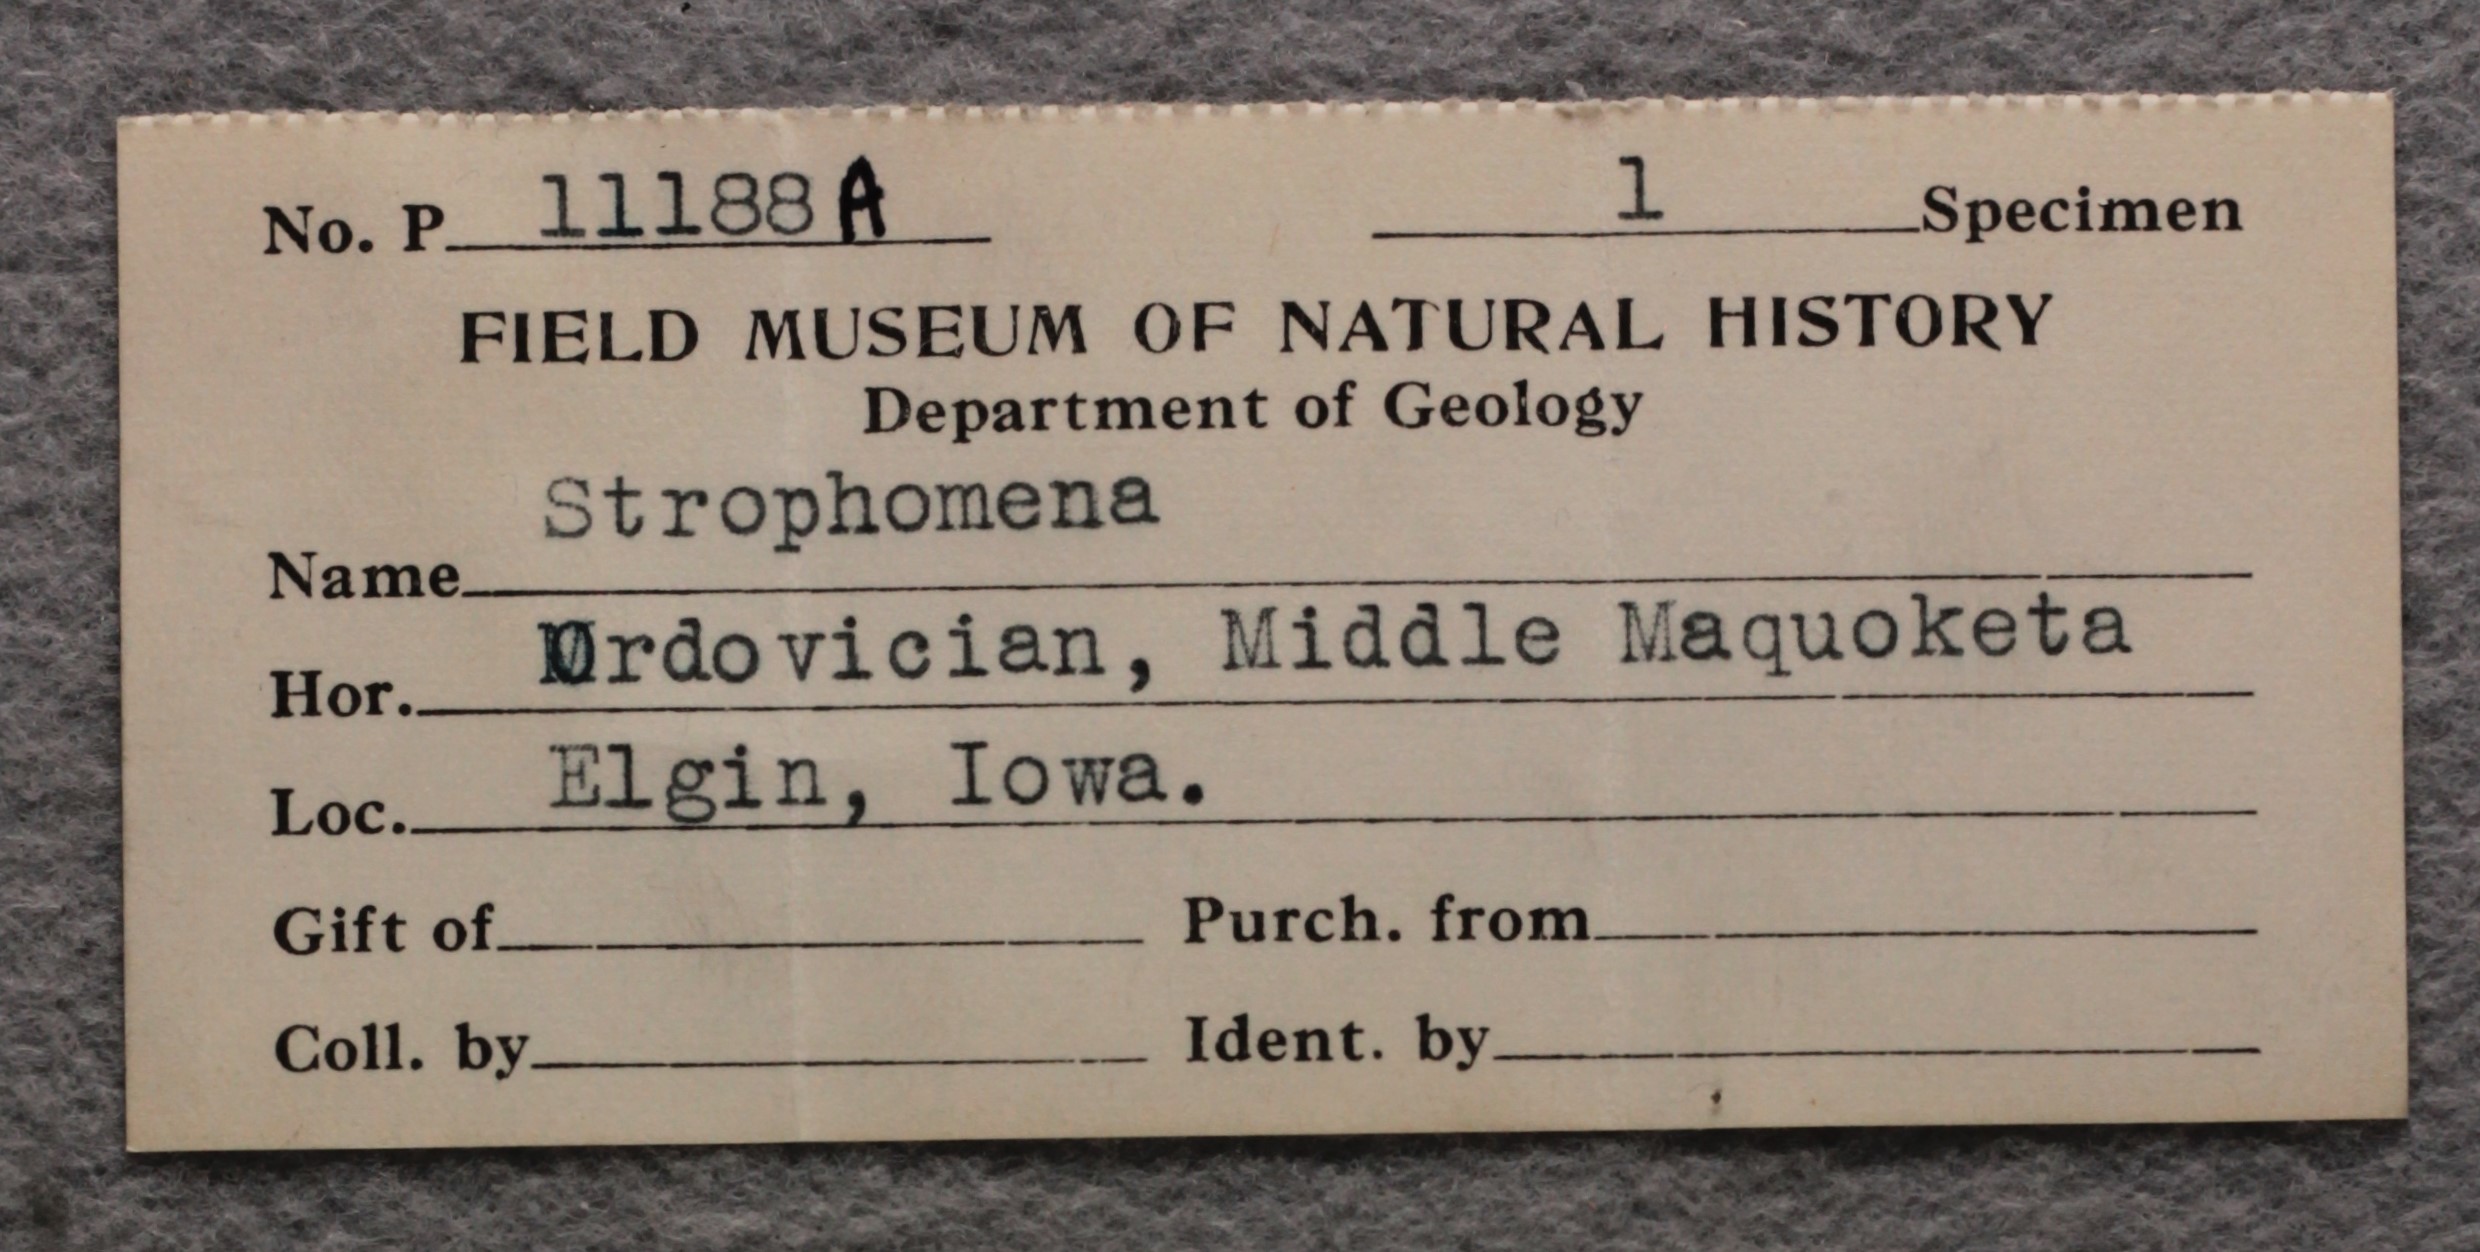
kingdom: Animalia
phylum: Brachiopoda
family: Strophomenidae
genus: Strophomena
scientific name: Strophomena
